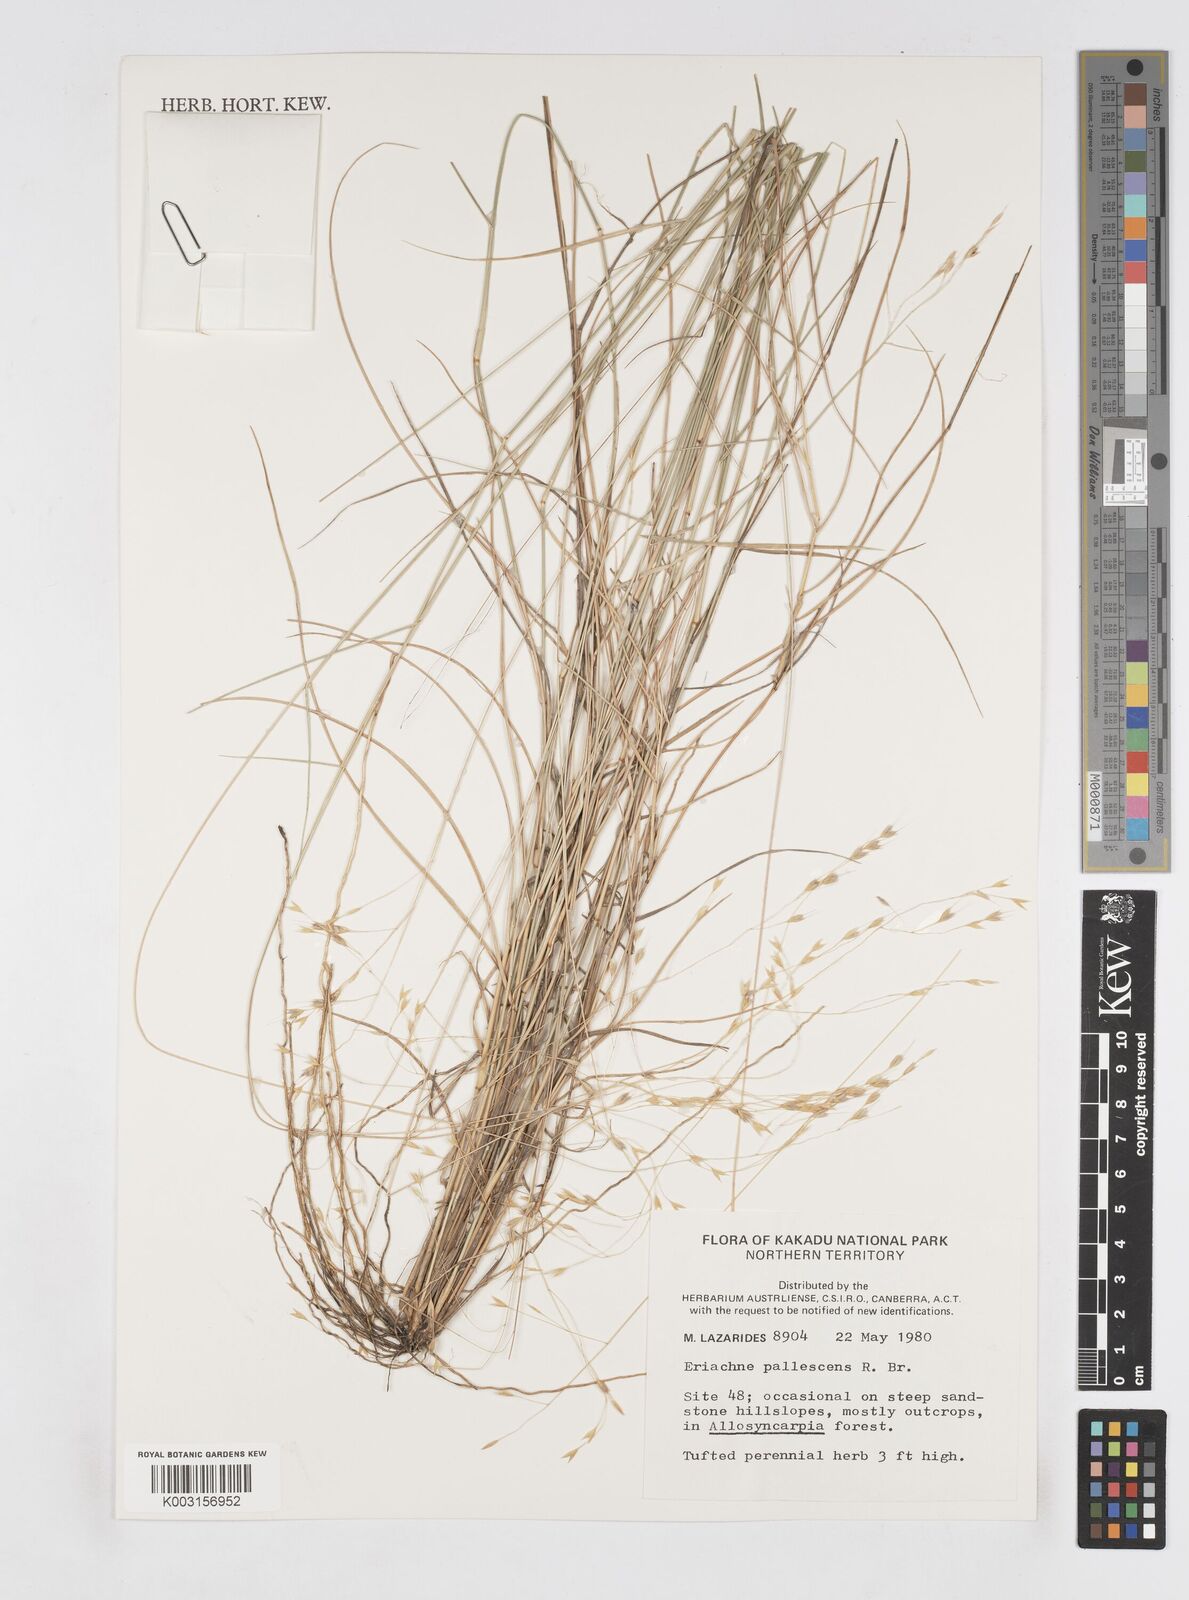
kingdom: Plantae
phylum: Tracheophyta
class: Liliopsida
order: Poales
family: Poaceae
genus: Eriachne
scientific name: Eriachne pallescens
